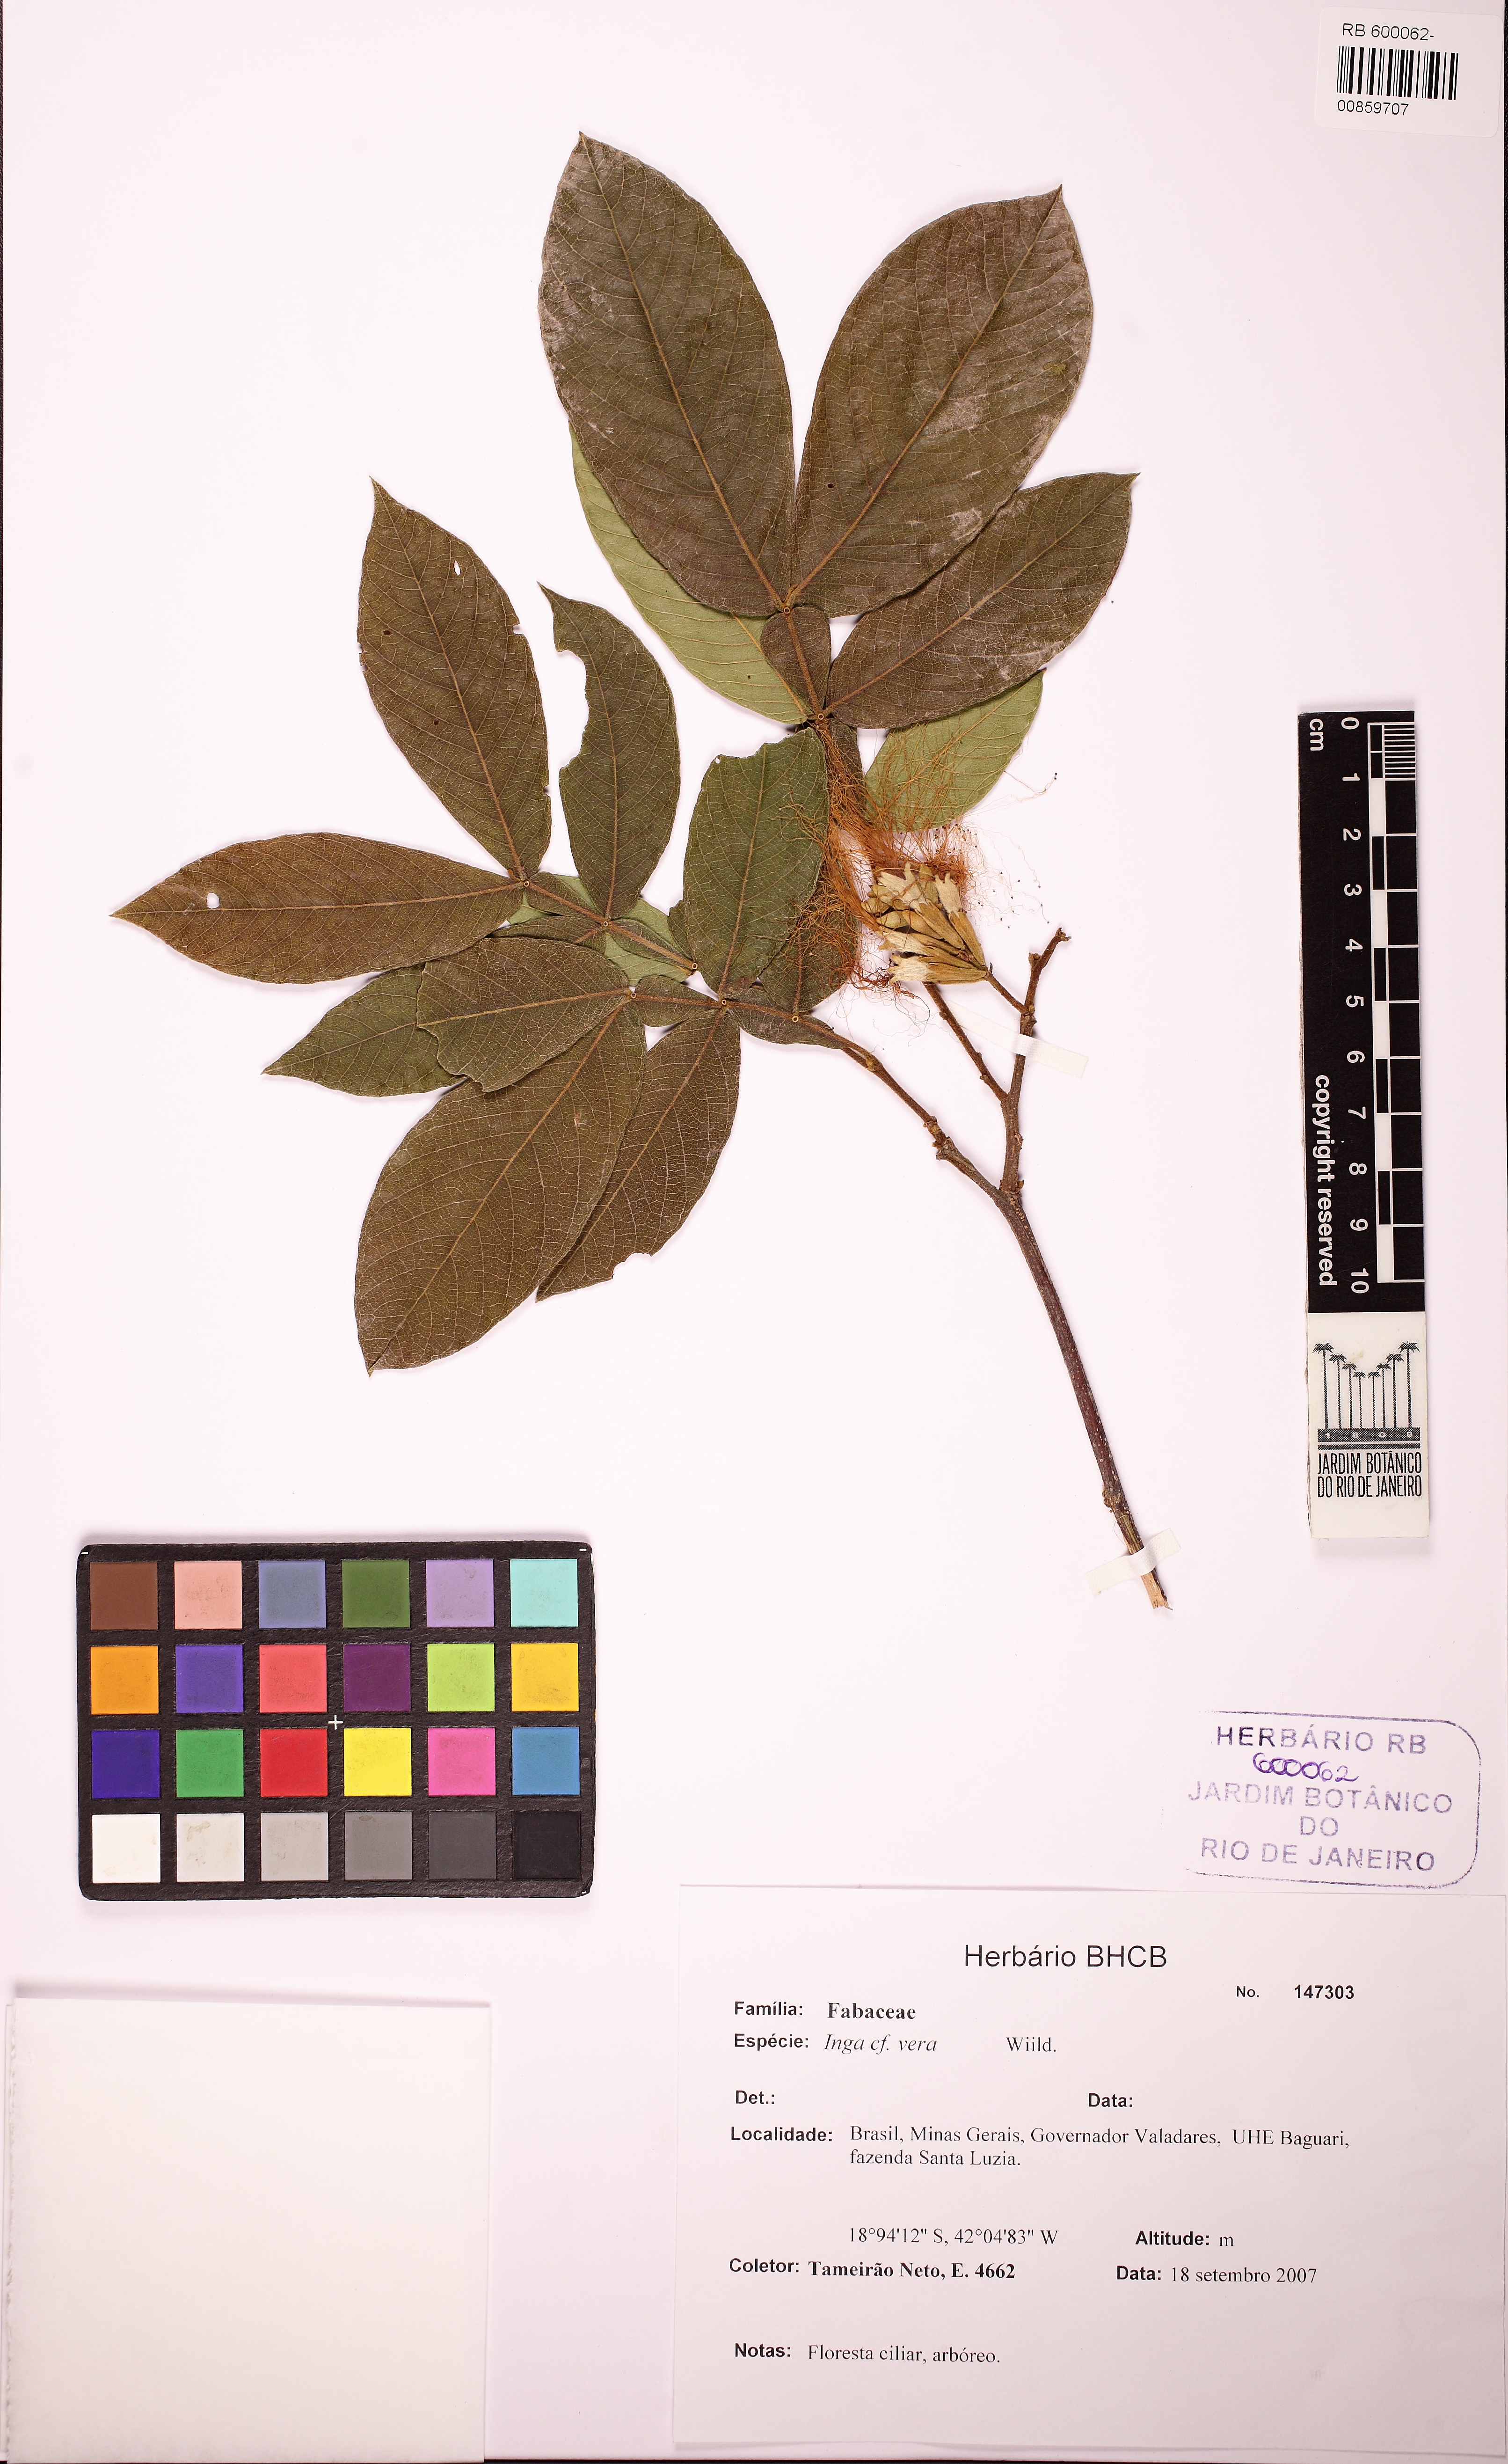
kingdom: Plantae
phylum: Tracheophyta
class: Magnoliopsida
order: Fabales
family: Fabaceae
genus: Inga
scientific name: Inga vera
